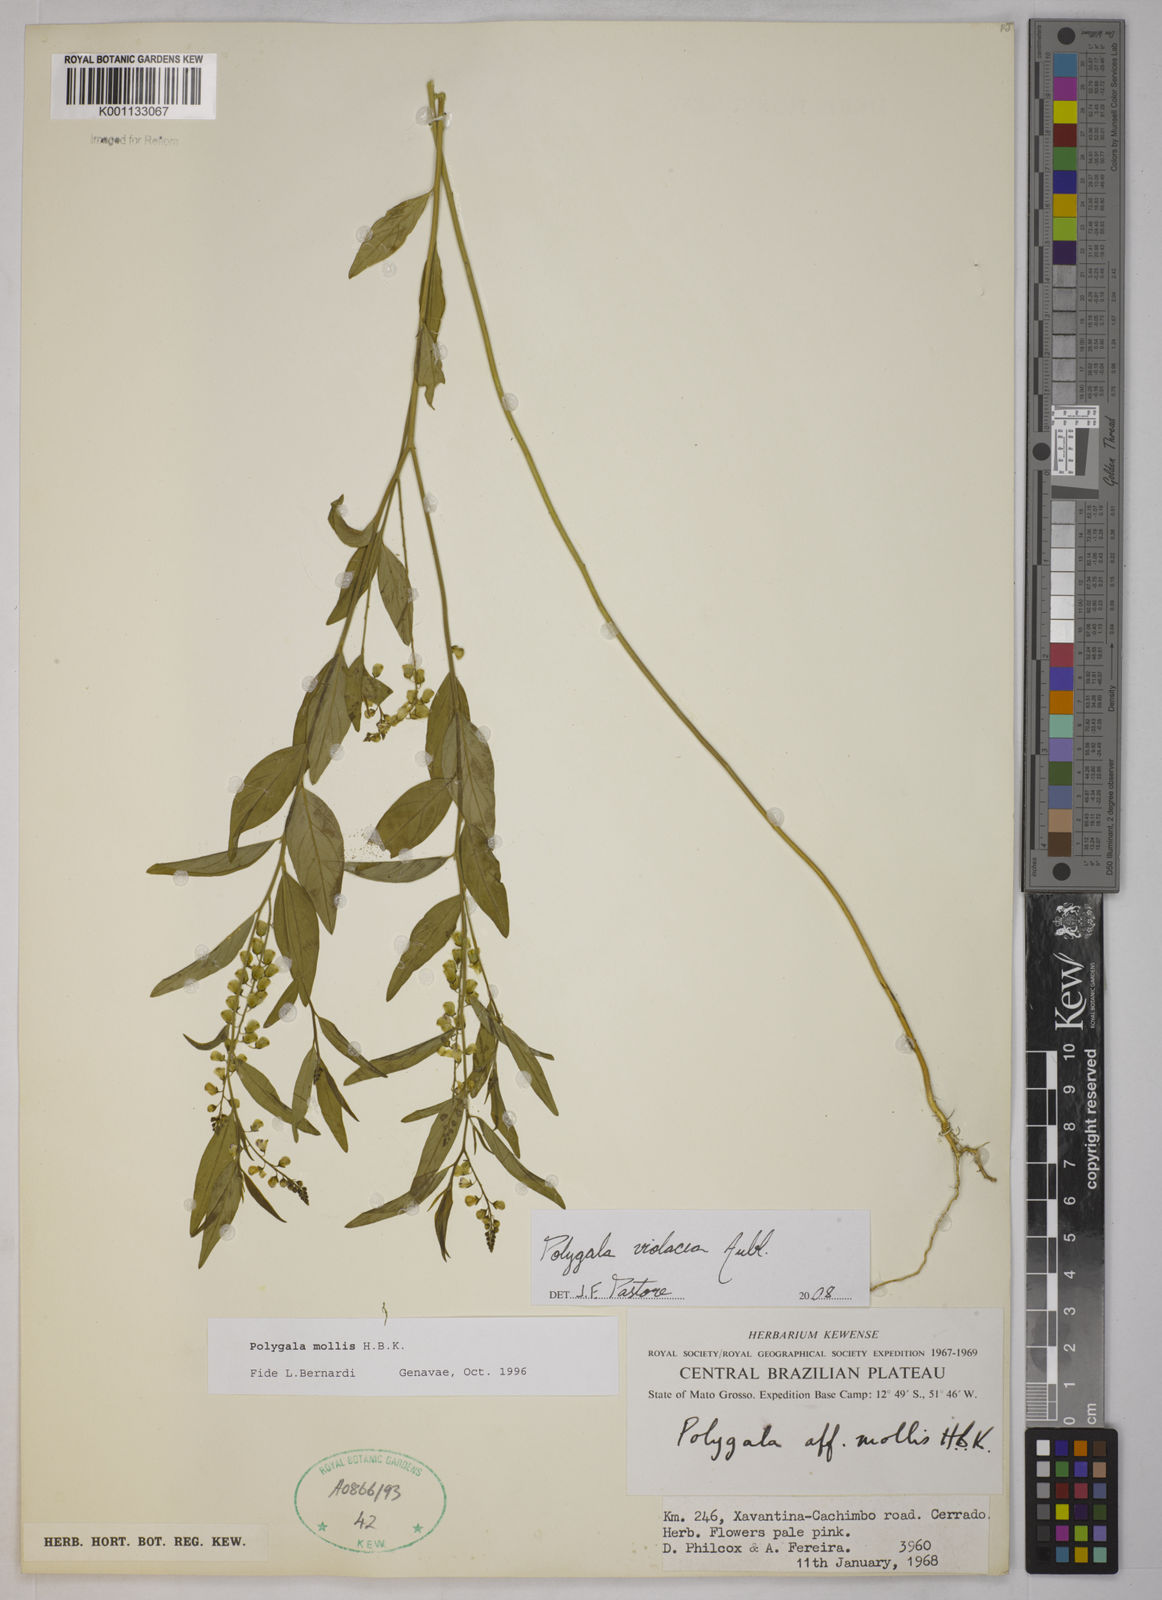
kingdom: Plantae
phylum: Tracheophyta
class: Magnoliopsida
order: Fabales
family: Polygalaceae
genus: Polygala
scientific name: Polygala
